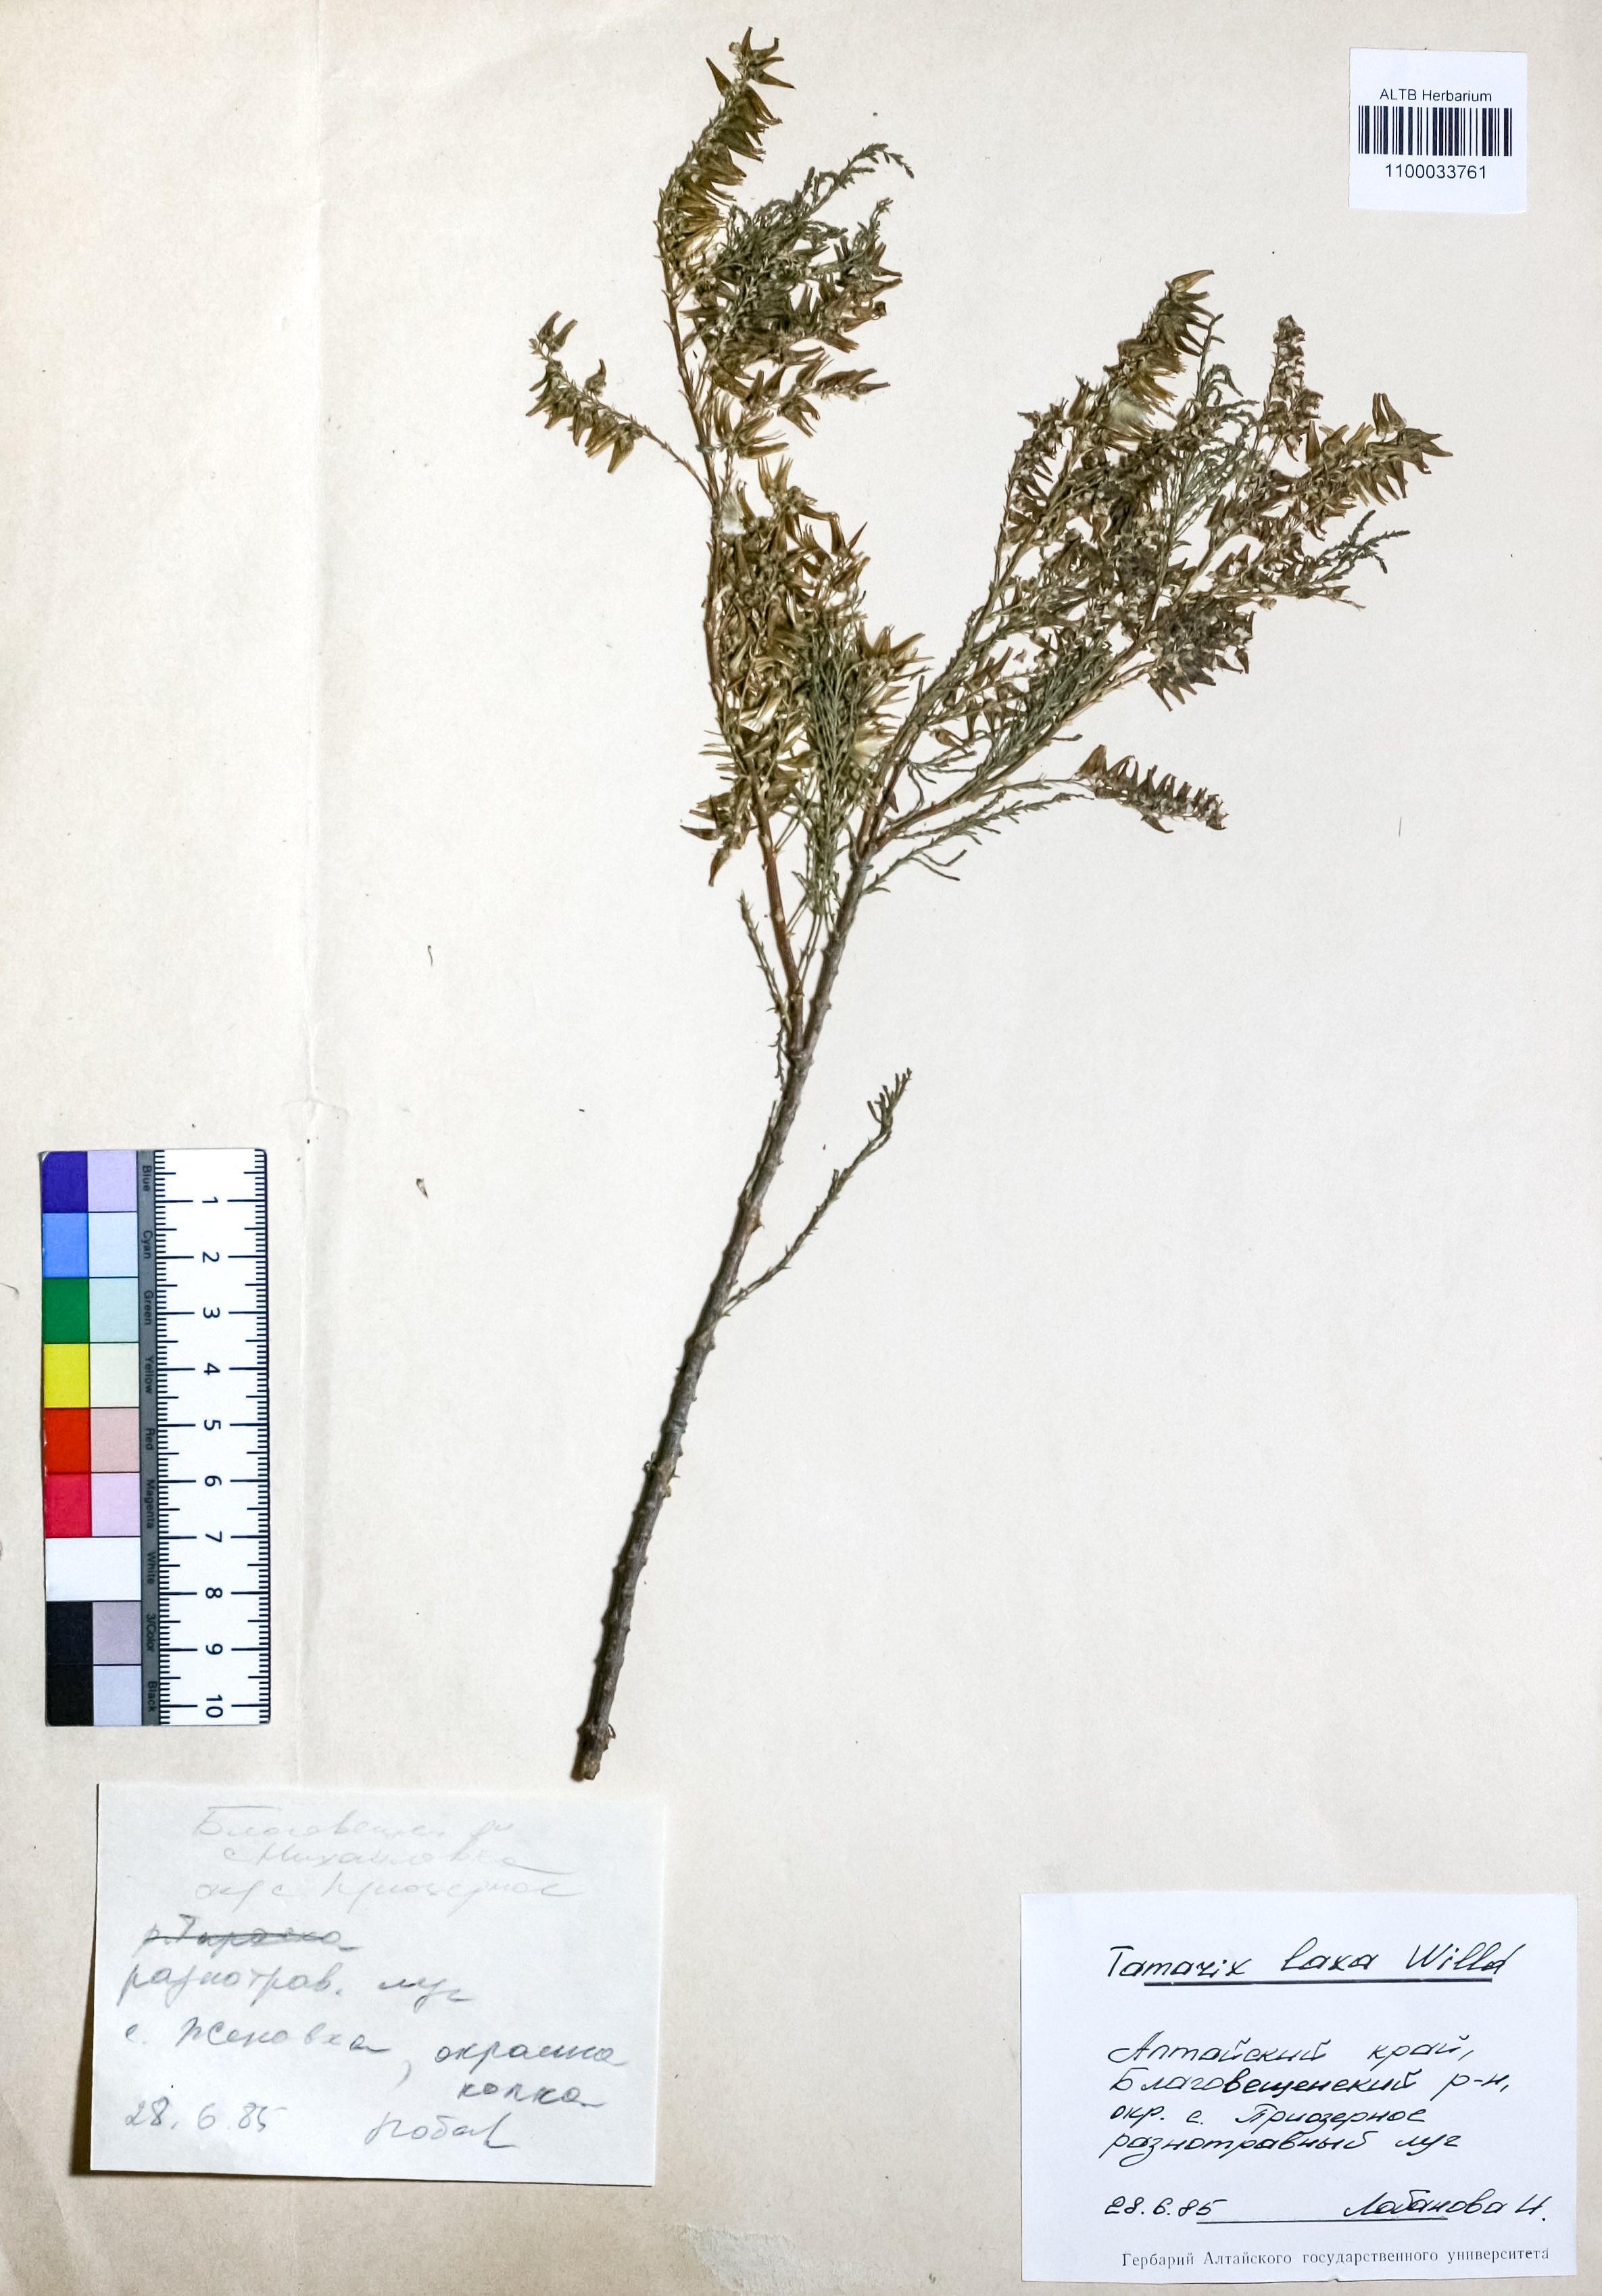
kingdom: Plantae
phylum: Tracheophyta
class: Magnoliopsida
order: Caryophyllales
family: Tamaricaceae
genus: Tamarix
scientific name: Tamarix laxa
